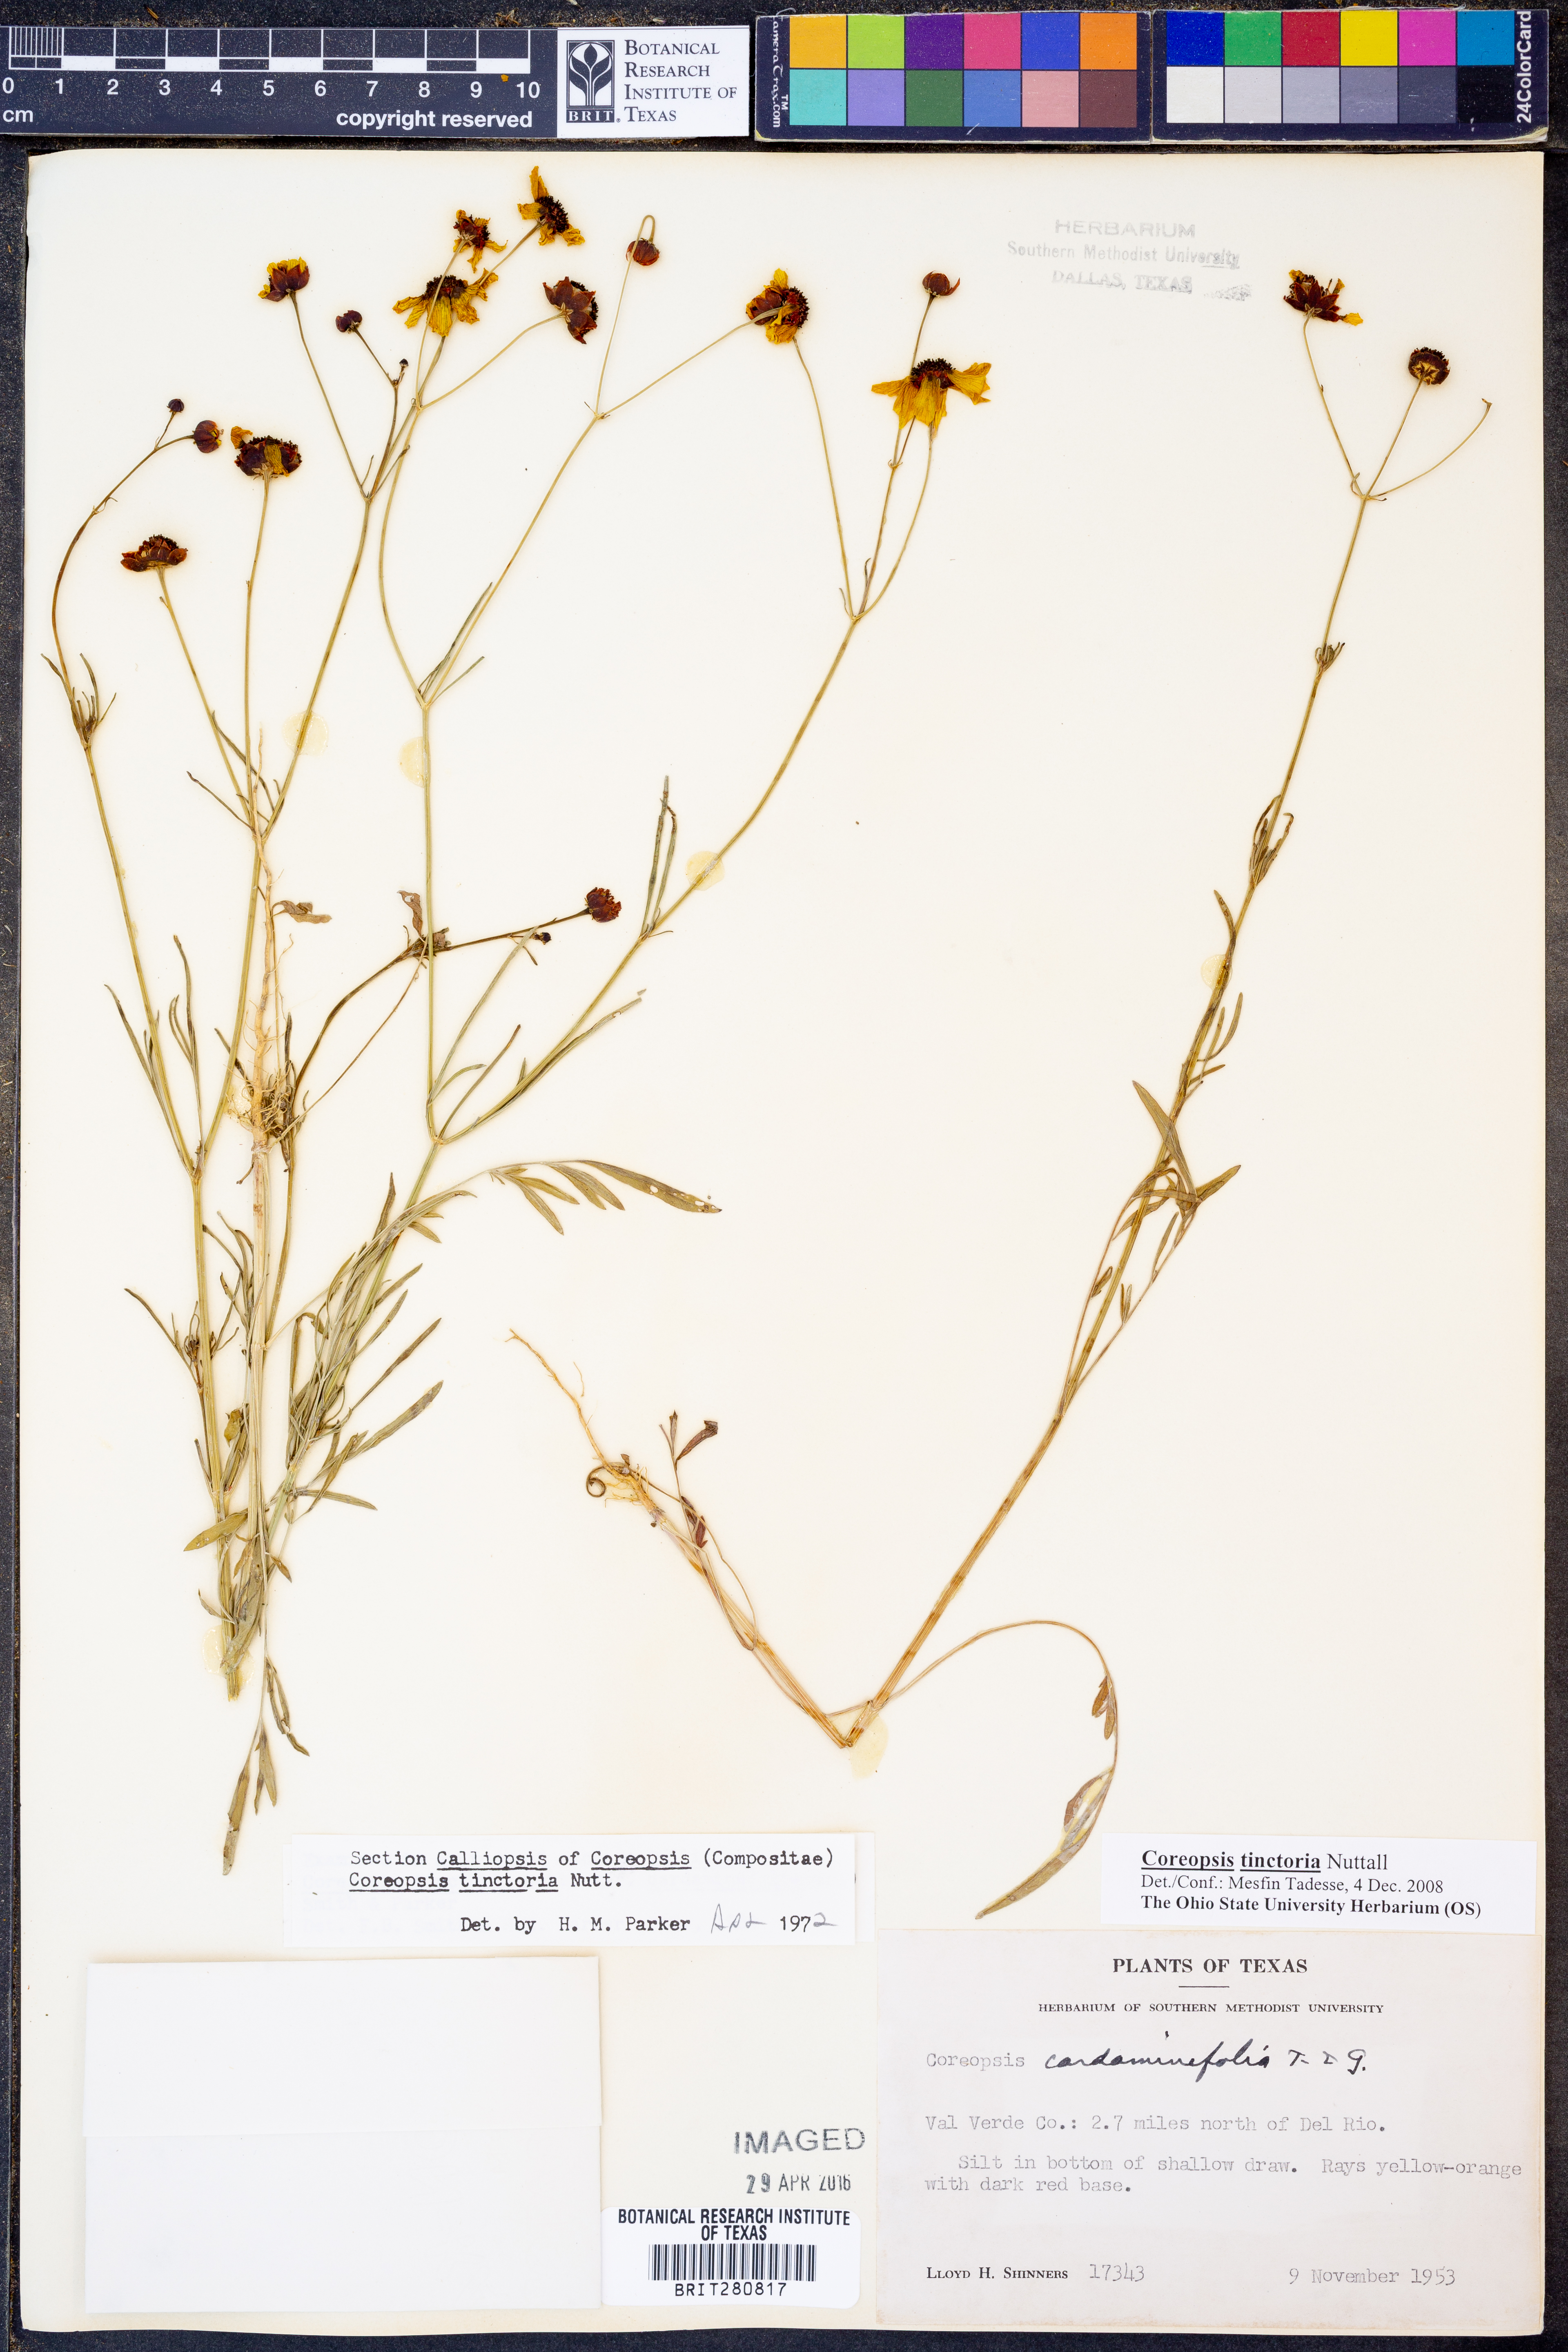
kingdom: Plantae
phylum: Tracheophyta
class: Magnoliopsida
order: Asterales
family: Asteraceae
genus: Coreopsis
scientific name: Coreopsis tinctoria
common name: Garden tickseed
